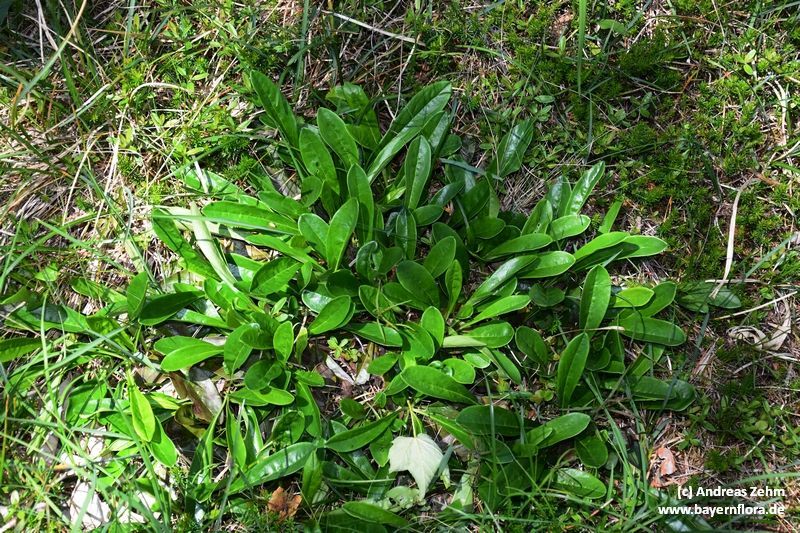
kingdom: Plantae
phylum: Tracheophyta
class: Magnoliopsida
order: Lamiales
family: Plantaginaceae
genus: Globularia
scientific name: Globularia nudicaulis
